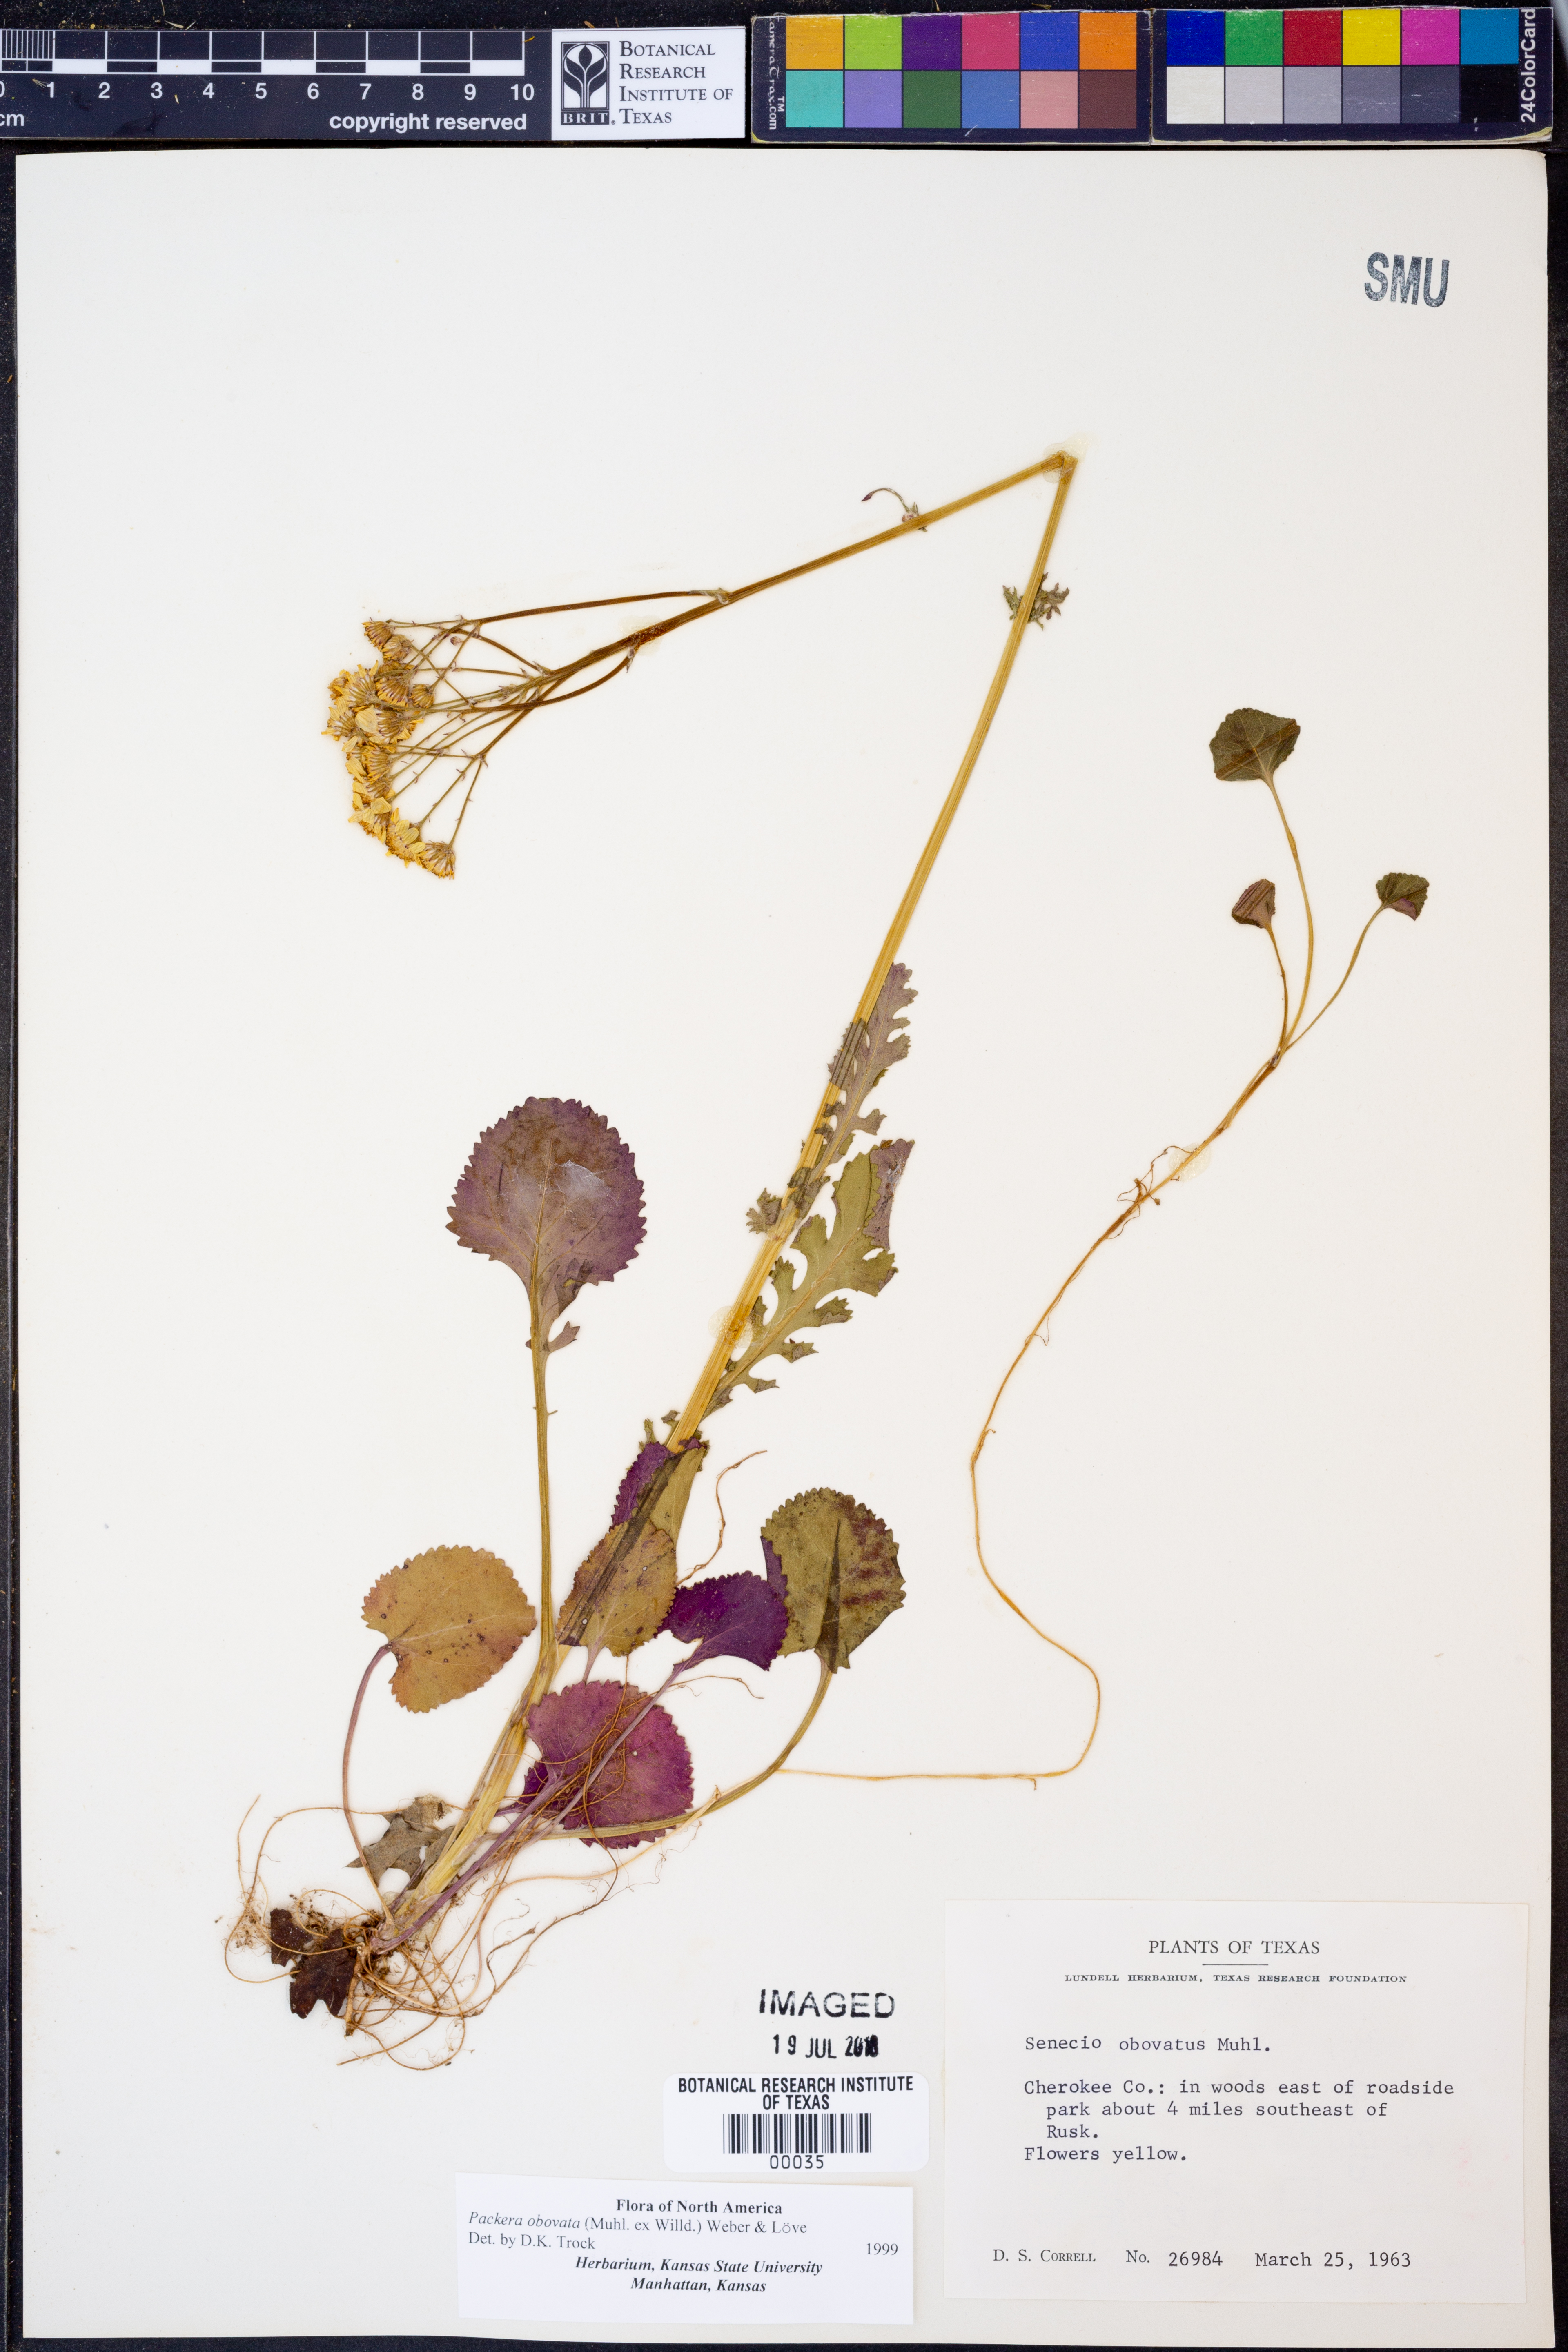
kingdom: Plantae
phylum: Tracheophyta
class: Magnoliopsida
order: Asterales
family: Asteraceae
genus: Packera
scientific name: Packera obovata
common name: Round-leaf ragwort
